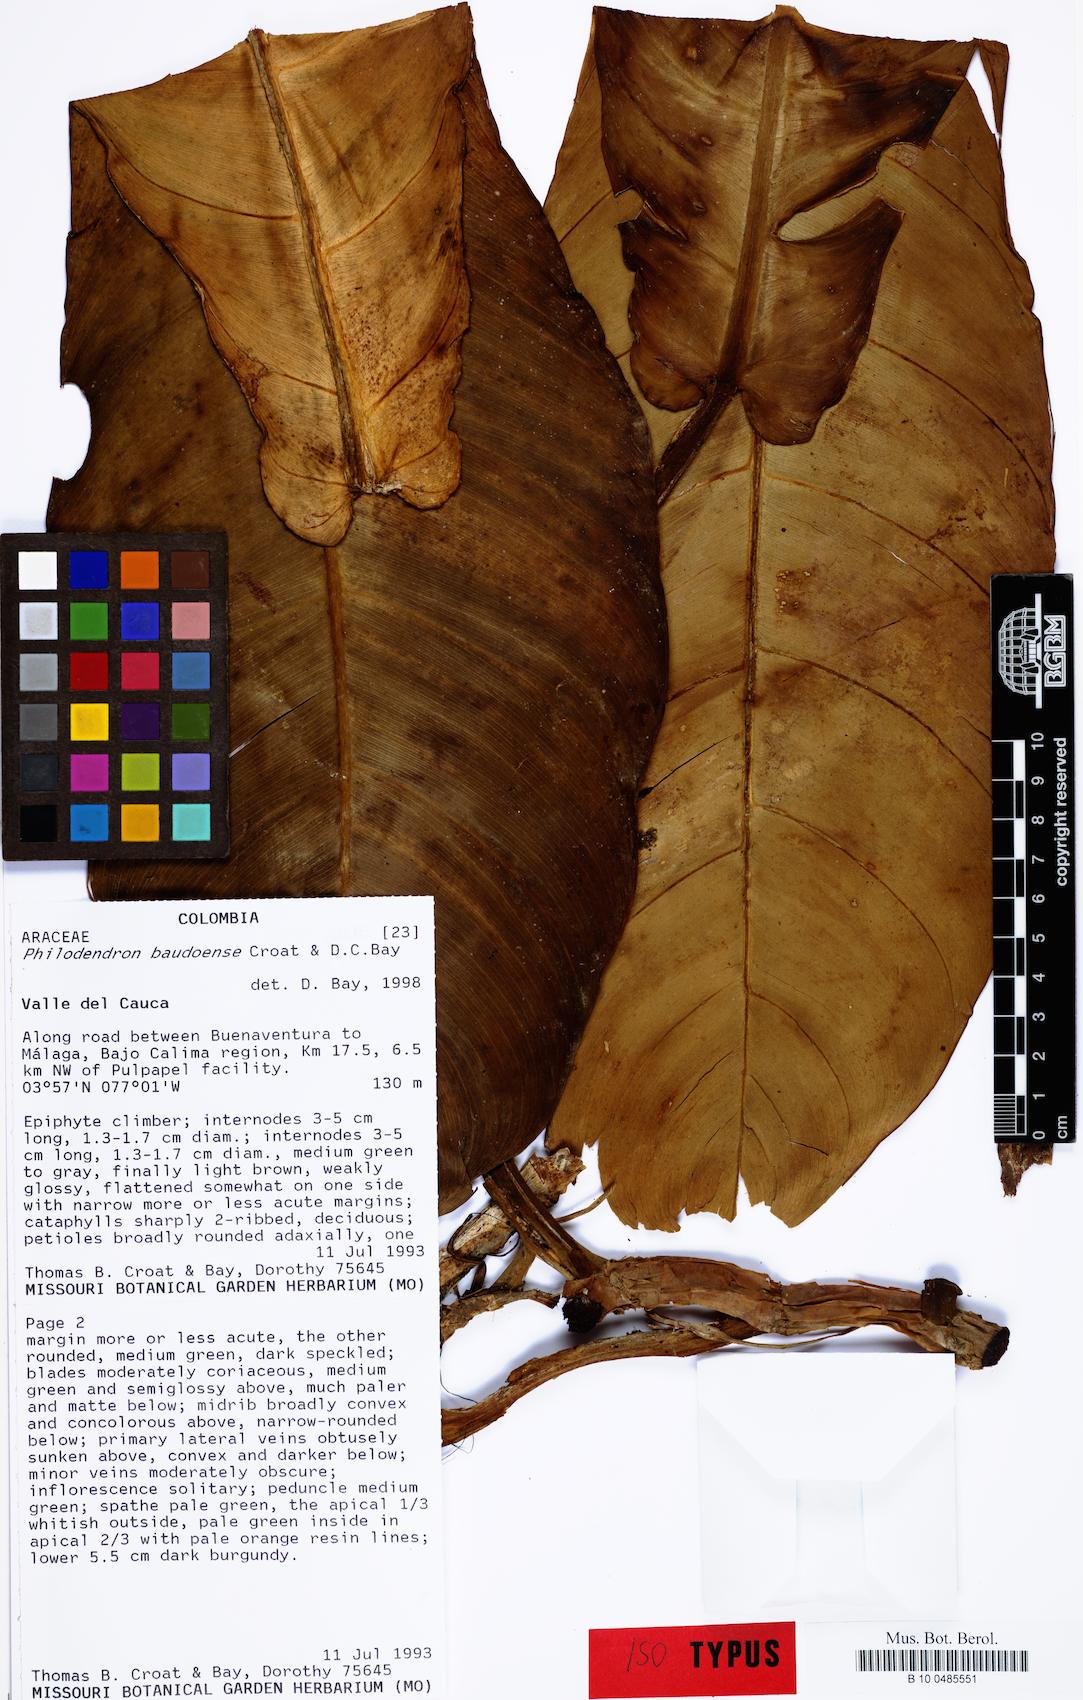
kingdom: Plantae
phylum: Tracheophyta
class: Liliopsida
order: Alismatales
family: Araceae
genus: Philodendron
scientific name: Philodendron baudoense
